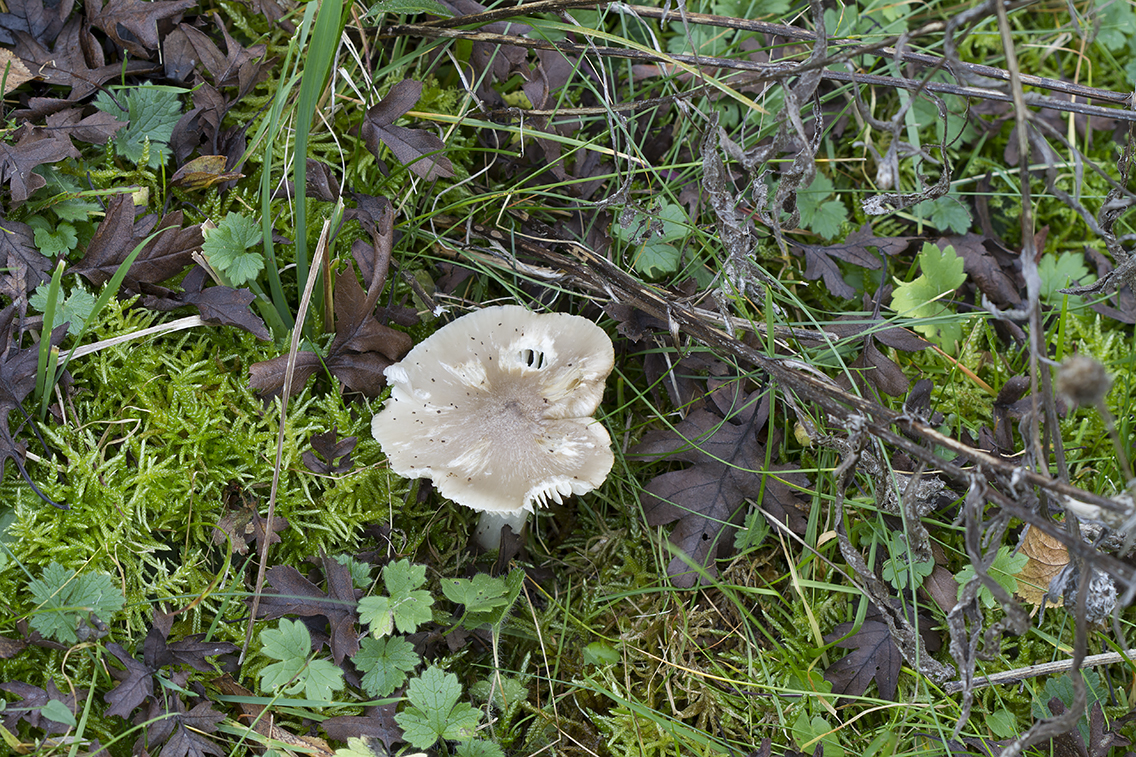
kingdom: Fungi
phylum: Basidiomycota
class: Agaricomycetes
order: Agaricales
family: Hygrophoraceae
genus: Cuphophyllus
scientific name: Cuphophyllus fornicatus
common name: gråbrun vokshat
